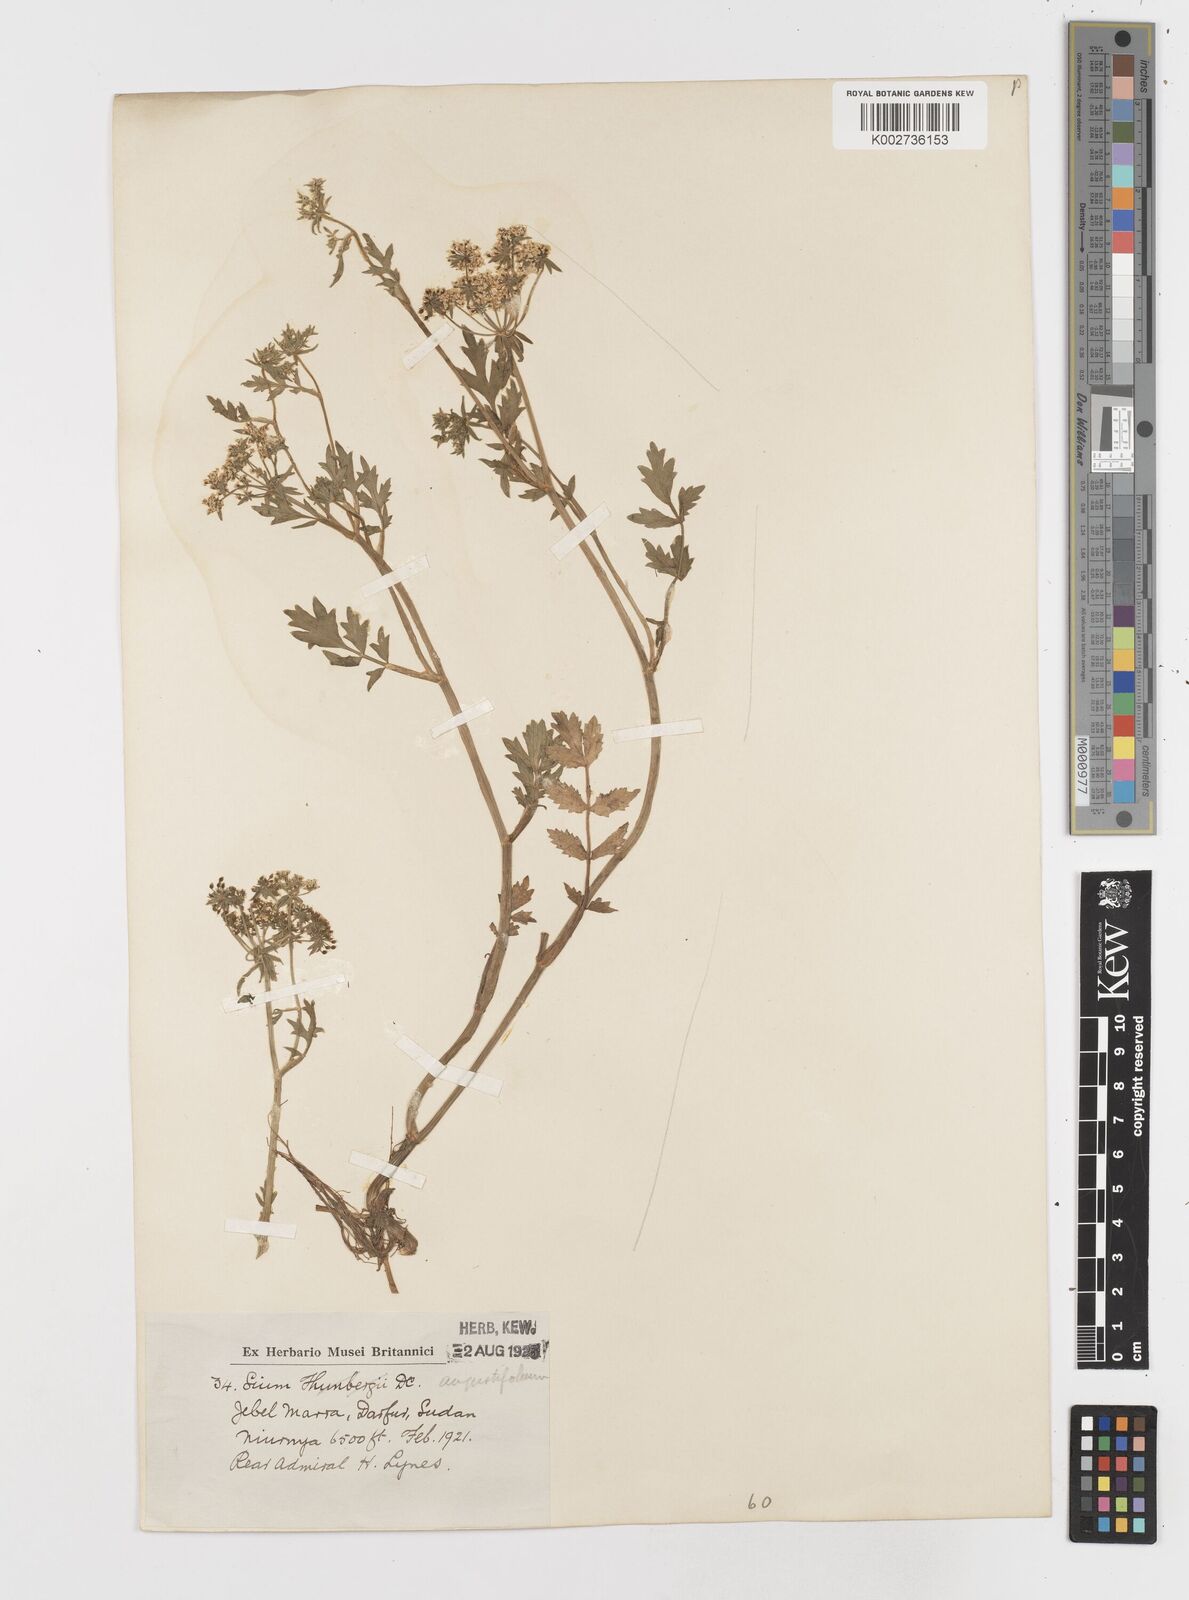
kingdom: Plantae
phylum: Tracheophyta
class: Magnoliopsida
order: Apiales
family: Apiaceae
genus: Berula
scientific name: Berula erecta
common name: Lesser water-parsnip
